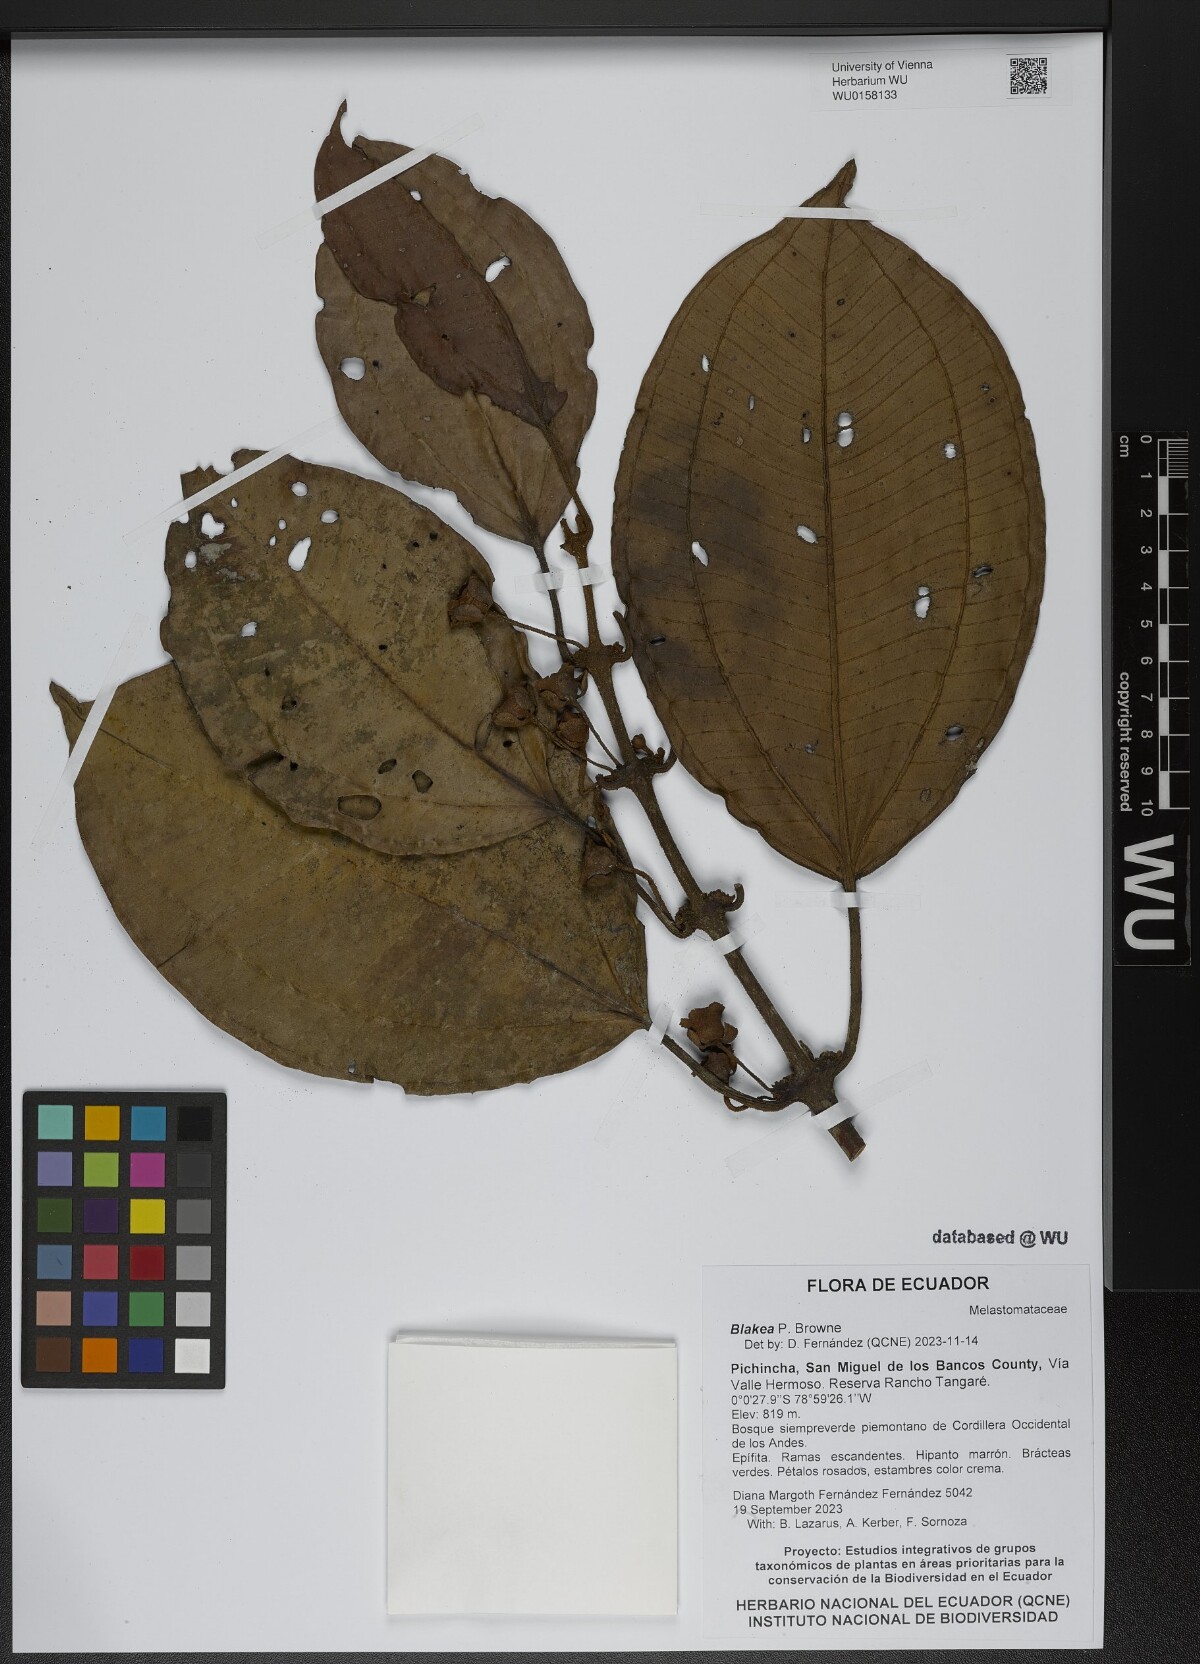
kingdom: Plantae
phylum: Tracheophyta
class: Magnoliopsida
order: Myrtales
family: Melastomataceae
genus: Blakea
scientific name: Blakea
